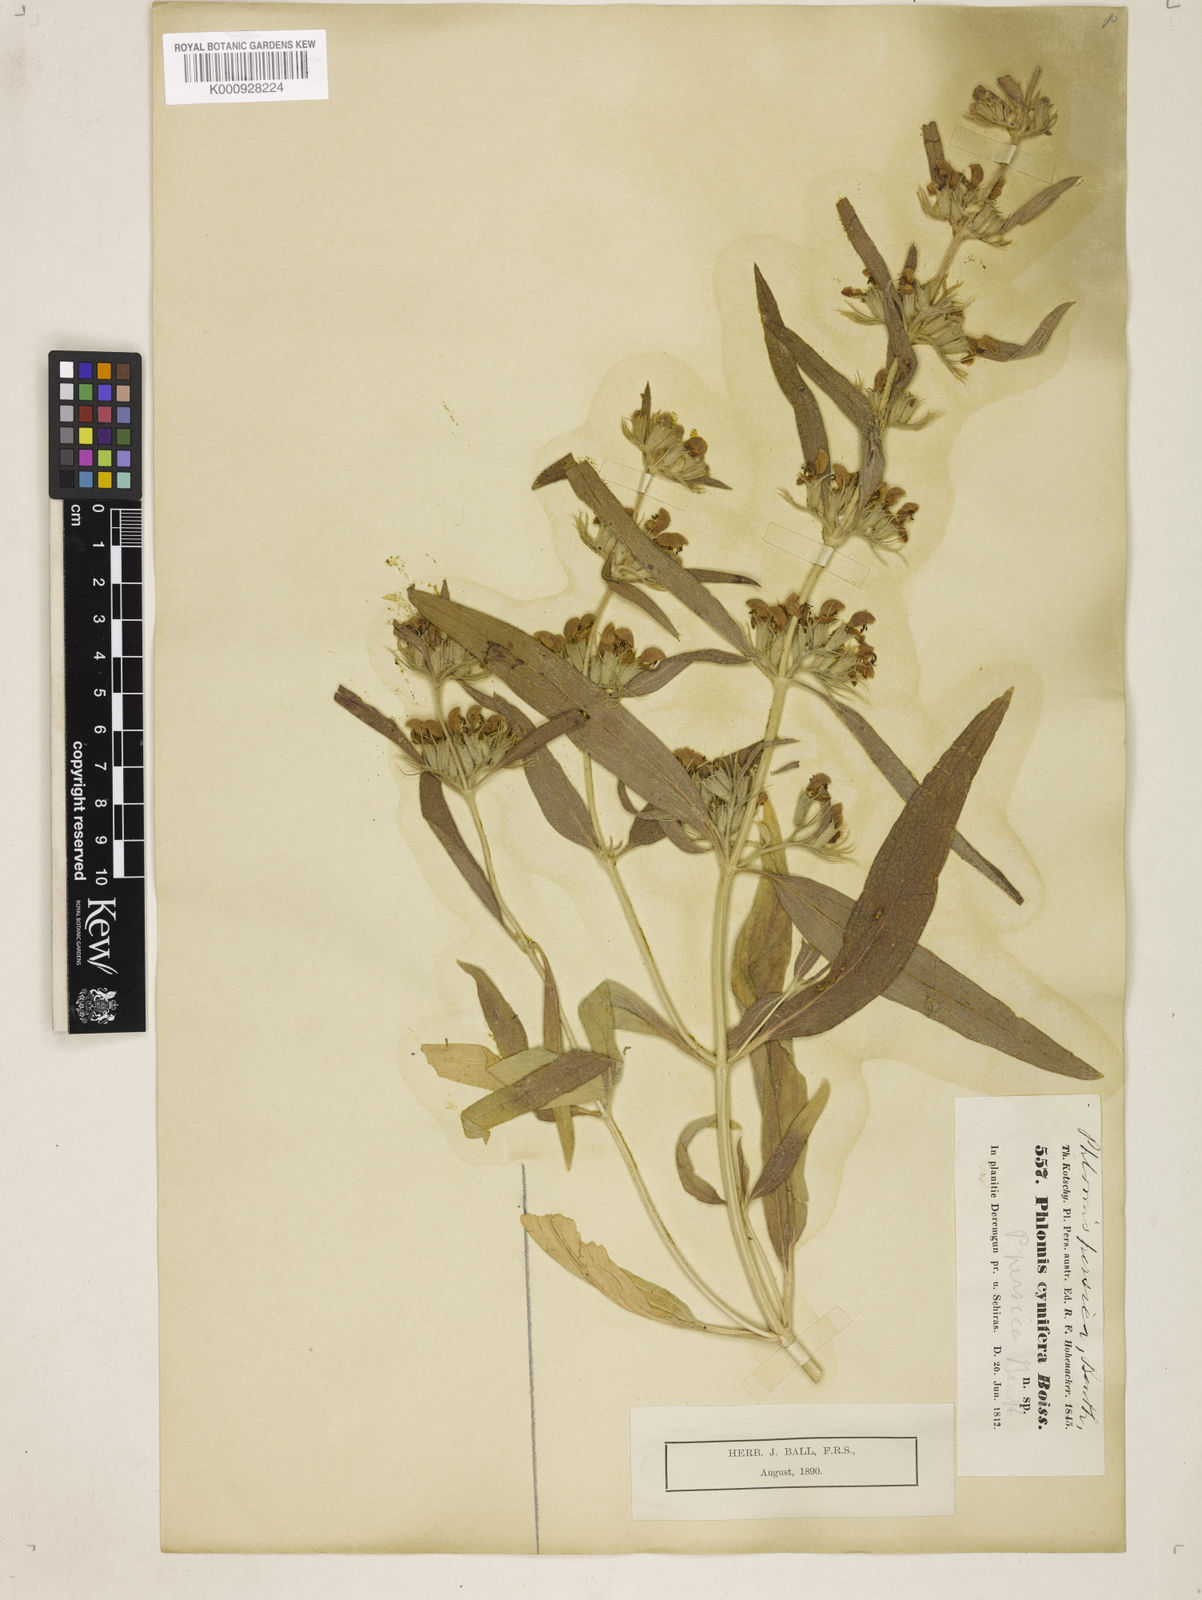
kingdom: Plantae
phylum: Tracheophyta
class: Magnoliopsida
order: Lamiales
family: Lamiaceae
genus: Phlomis
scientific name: Phlomis persica
